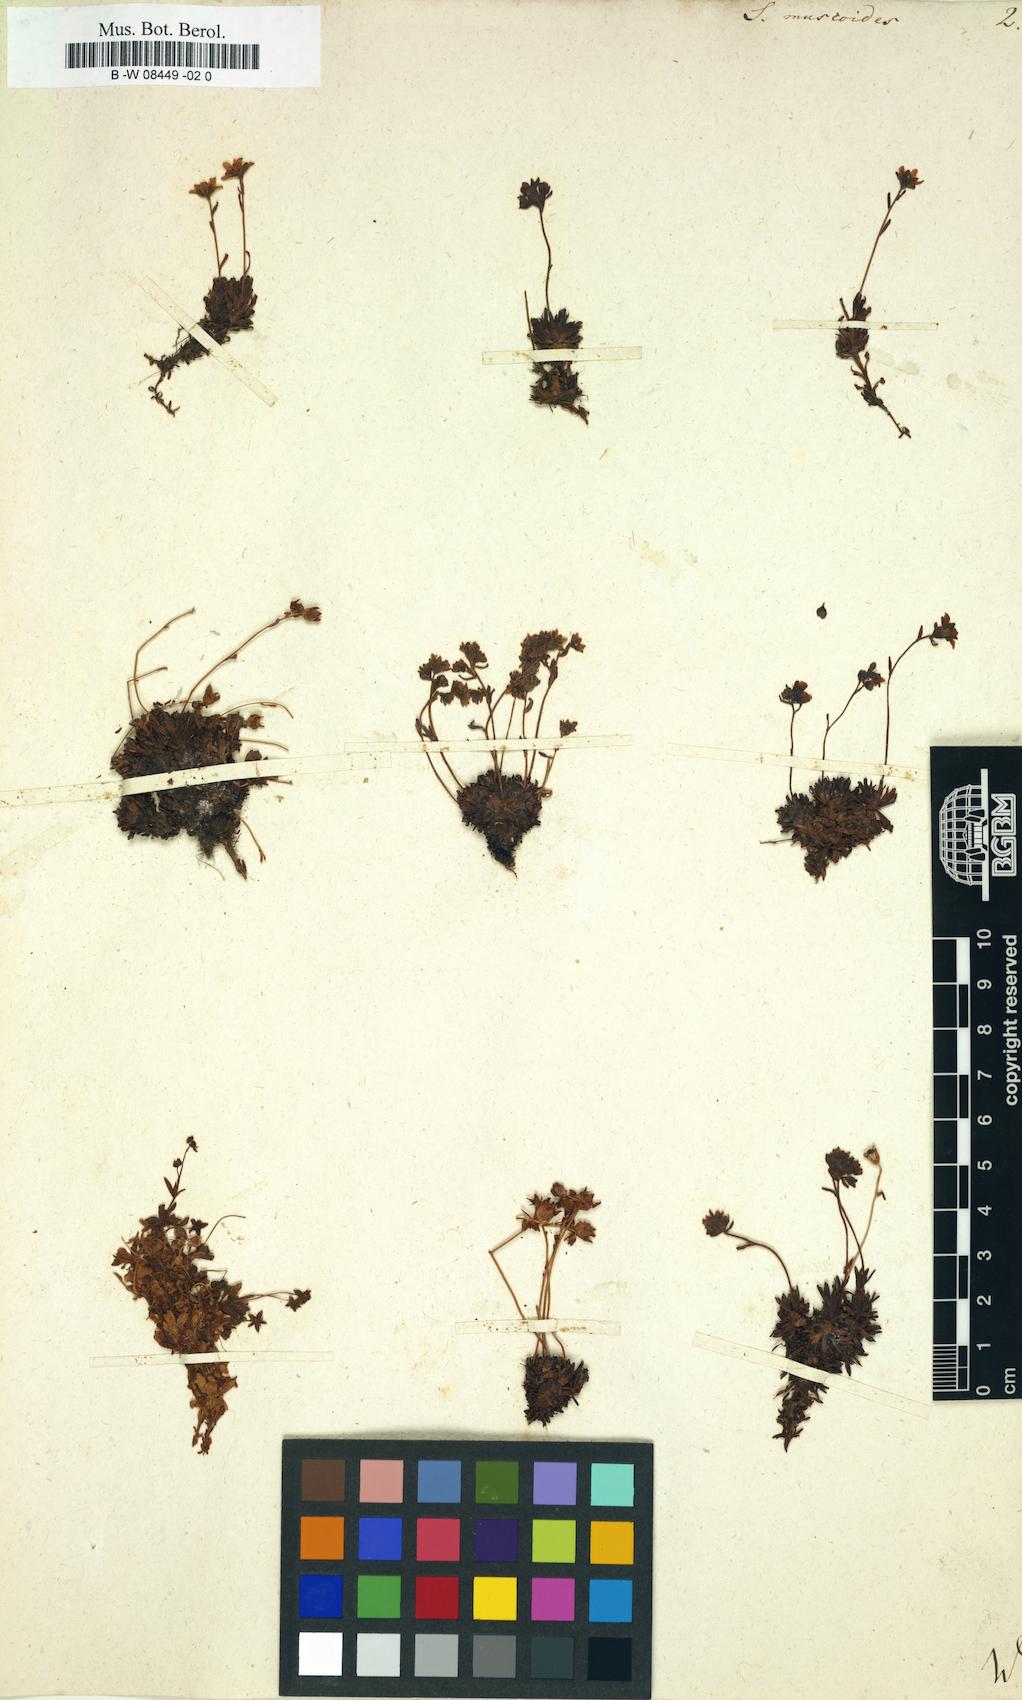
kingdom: Plantae
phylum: Tracheophyta
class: Magnoliopsida
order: Saxifragales
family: Saxifragaceae
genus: Saxifraga
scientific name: Saxifraga muscoides
